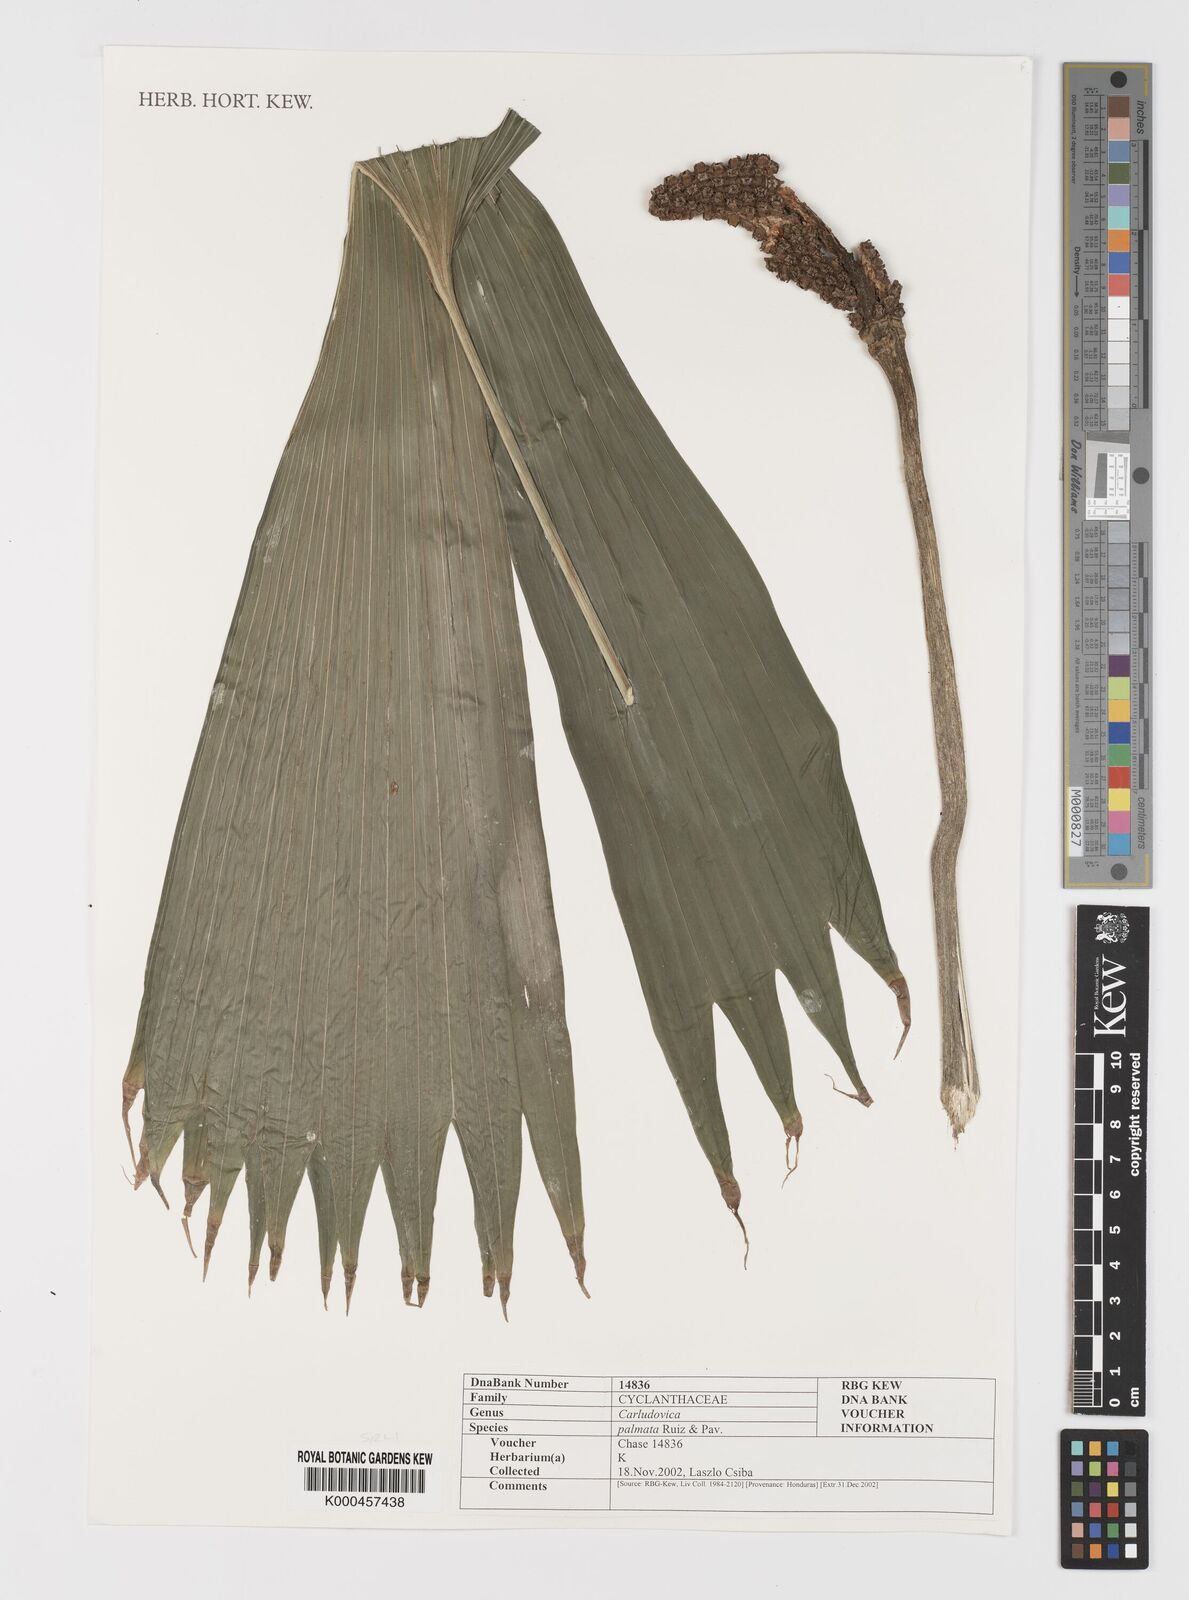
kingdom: Plantae
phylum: Tracheophyta
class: Liliopsida
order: Pandanales
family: Cyclanthaceae
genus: Carludovica
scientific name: Carludovica palmata
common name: Panama hat plant
